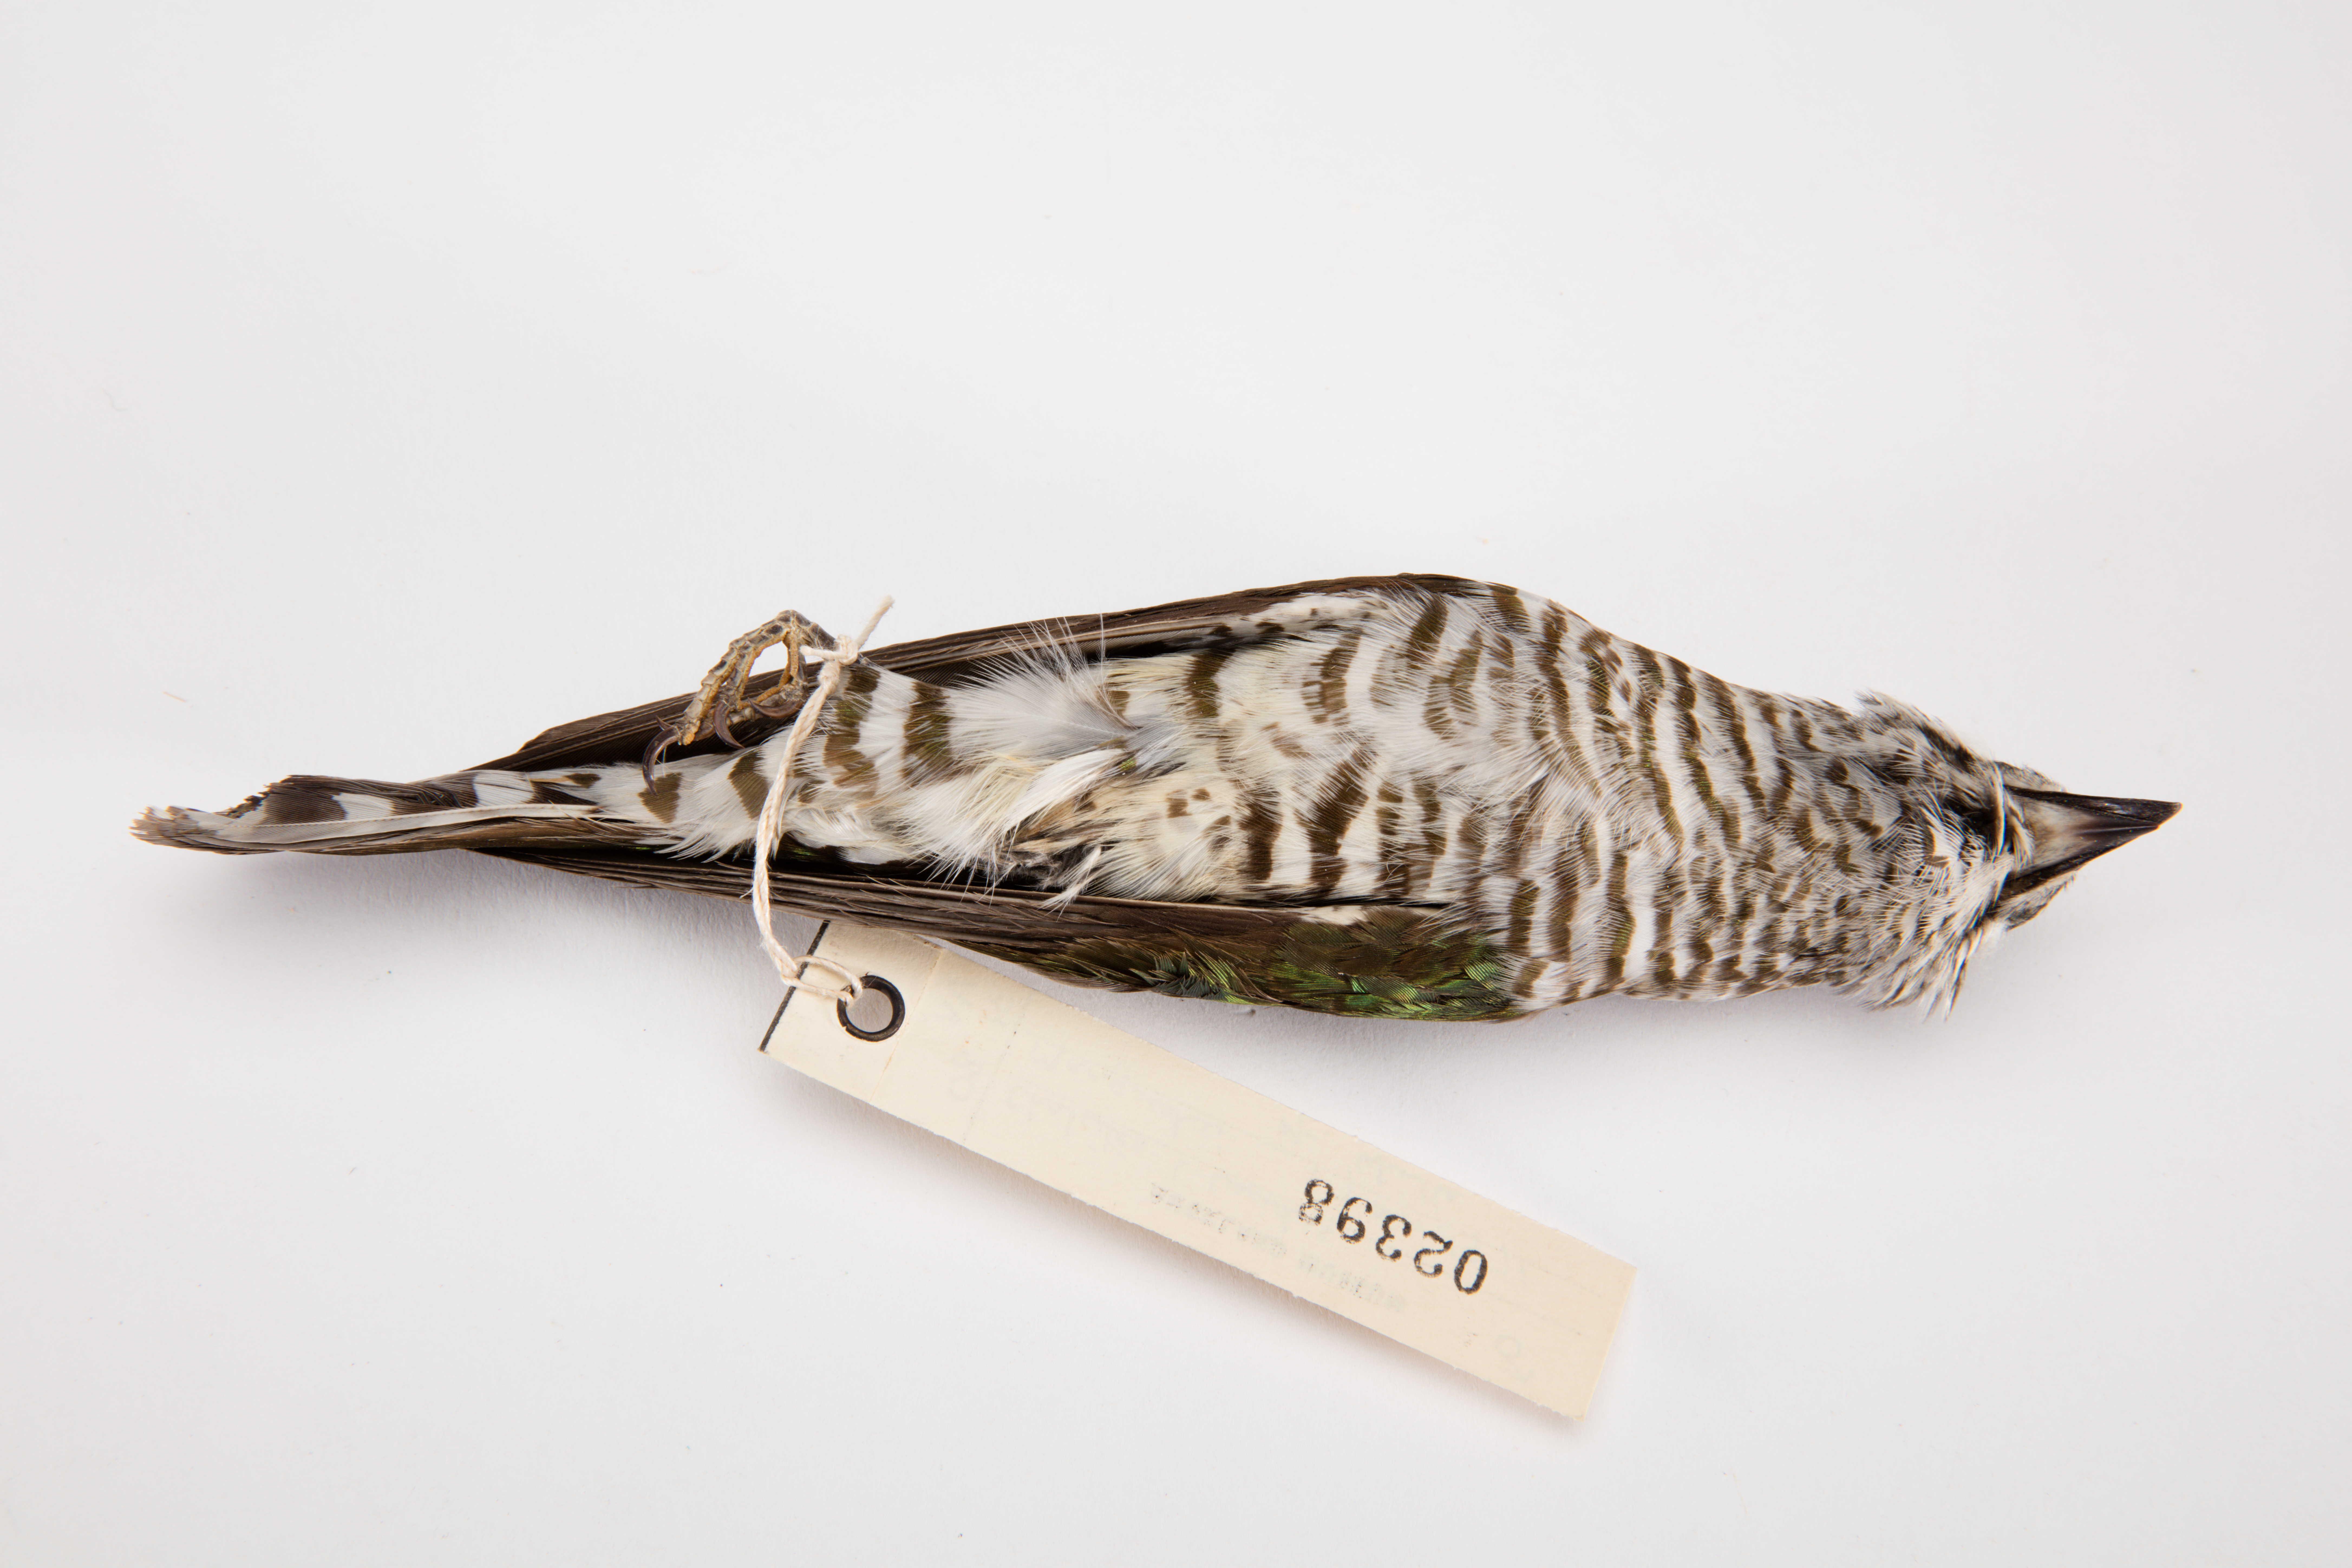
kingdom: Animalia
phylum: Chordata
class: Aves
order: Cuculiformes
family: Cuculidae
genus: Chrysococcyx
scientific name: Chrysococcyx lucidus
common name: Shining bronze cuckoo
